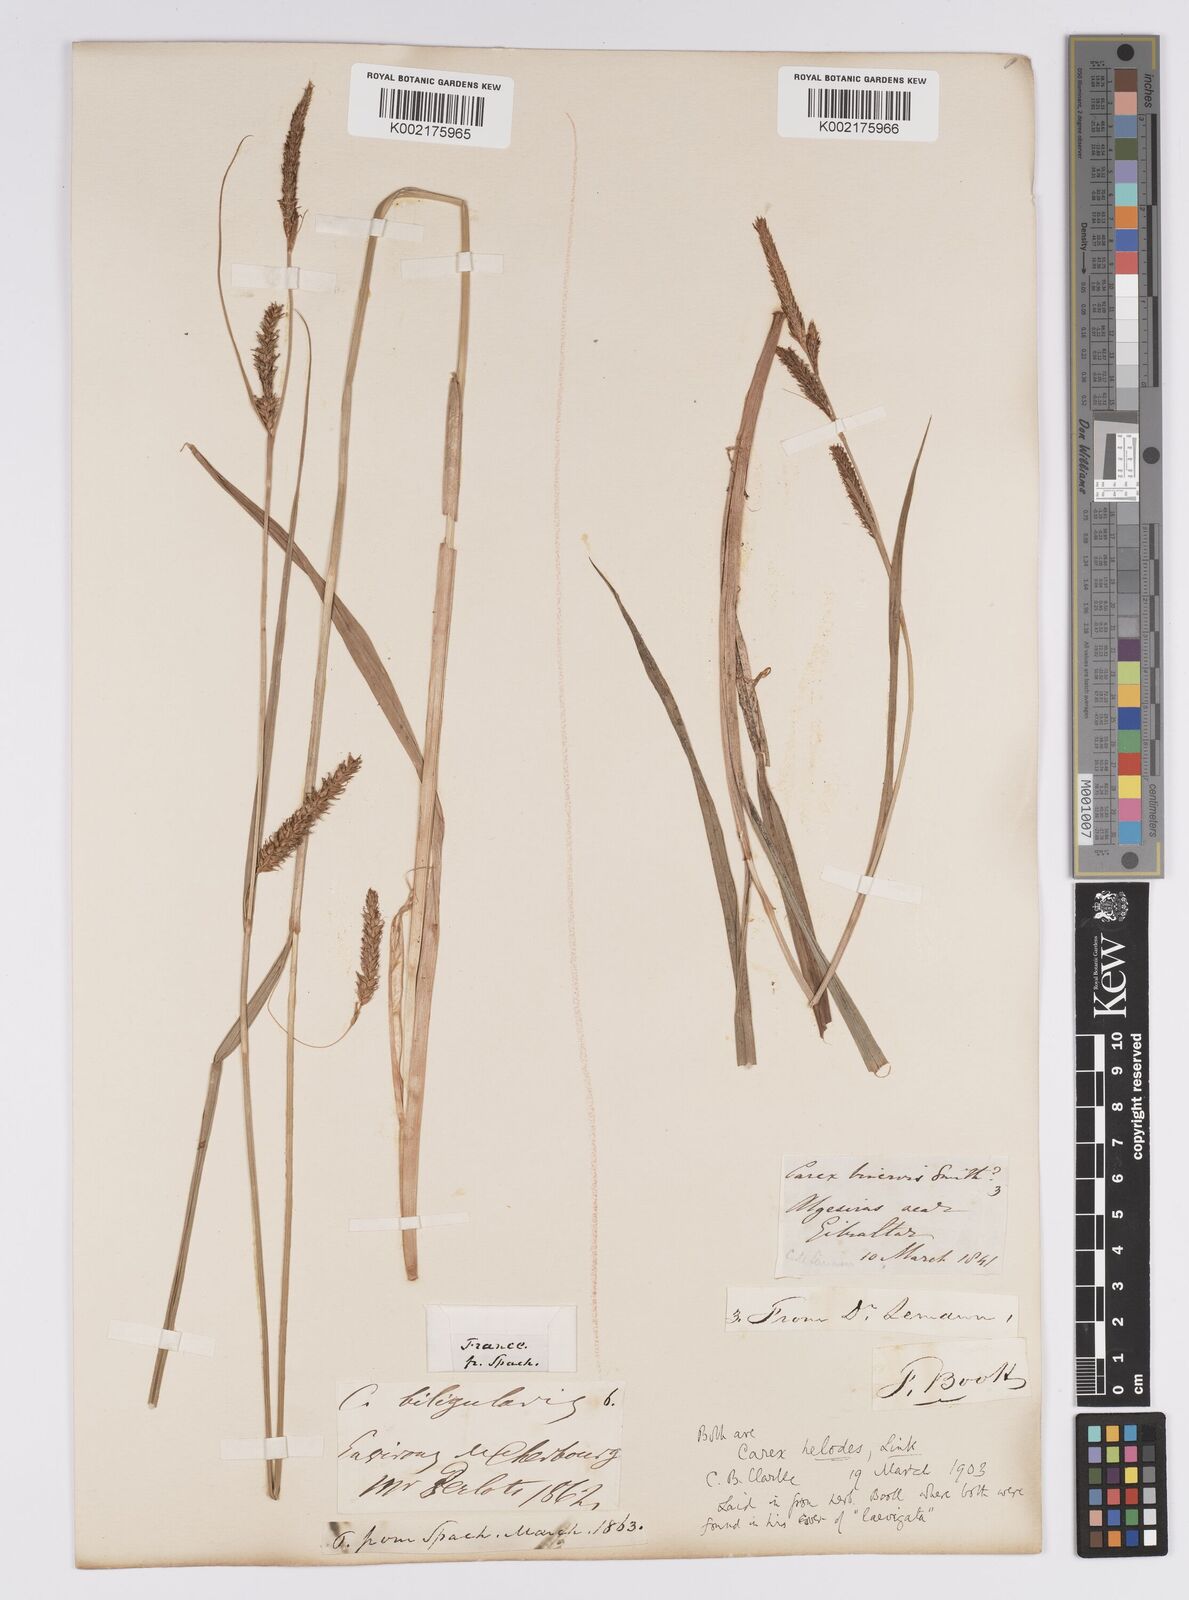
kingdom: Plantae
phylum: Tracheophyta
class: Liliopsida
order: Poales
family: Cyperaceae
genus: Carex
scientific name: Carex laevigata
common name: Smooth-stalked sedge
